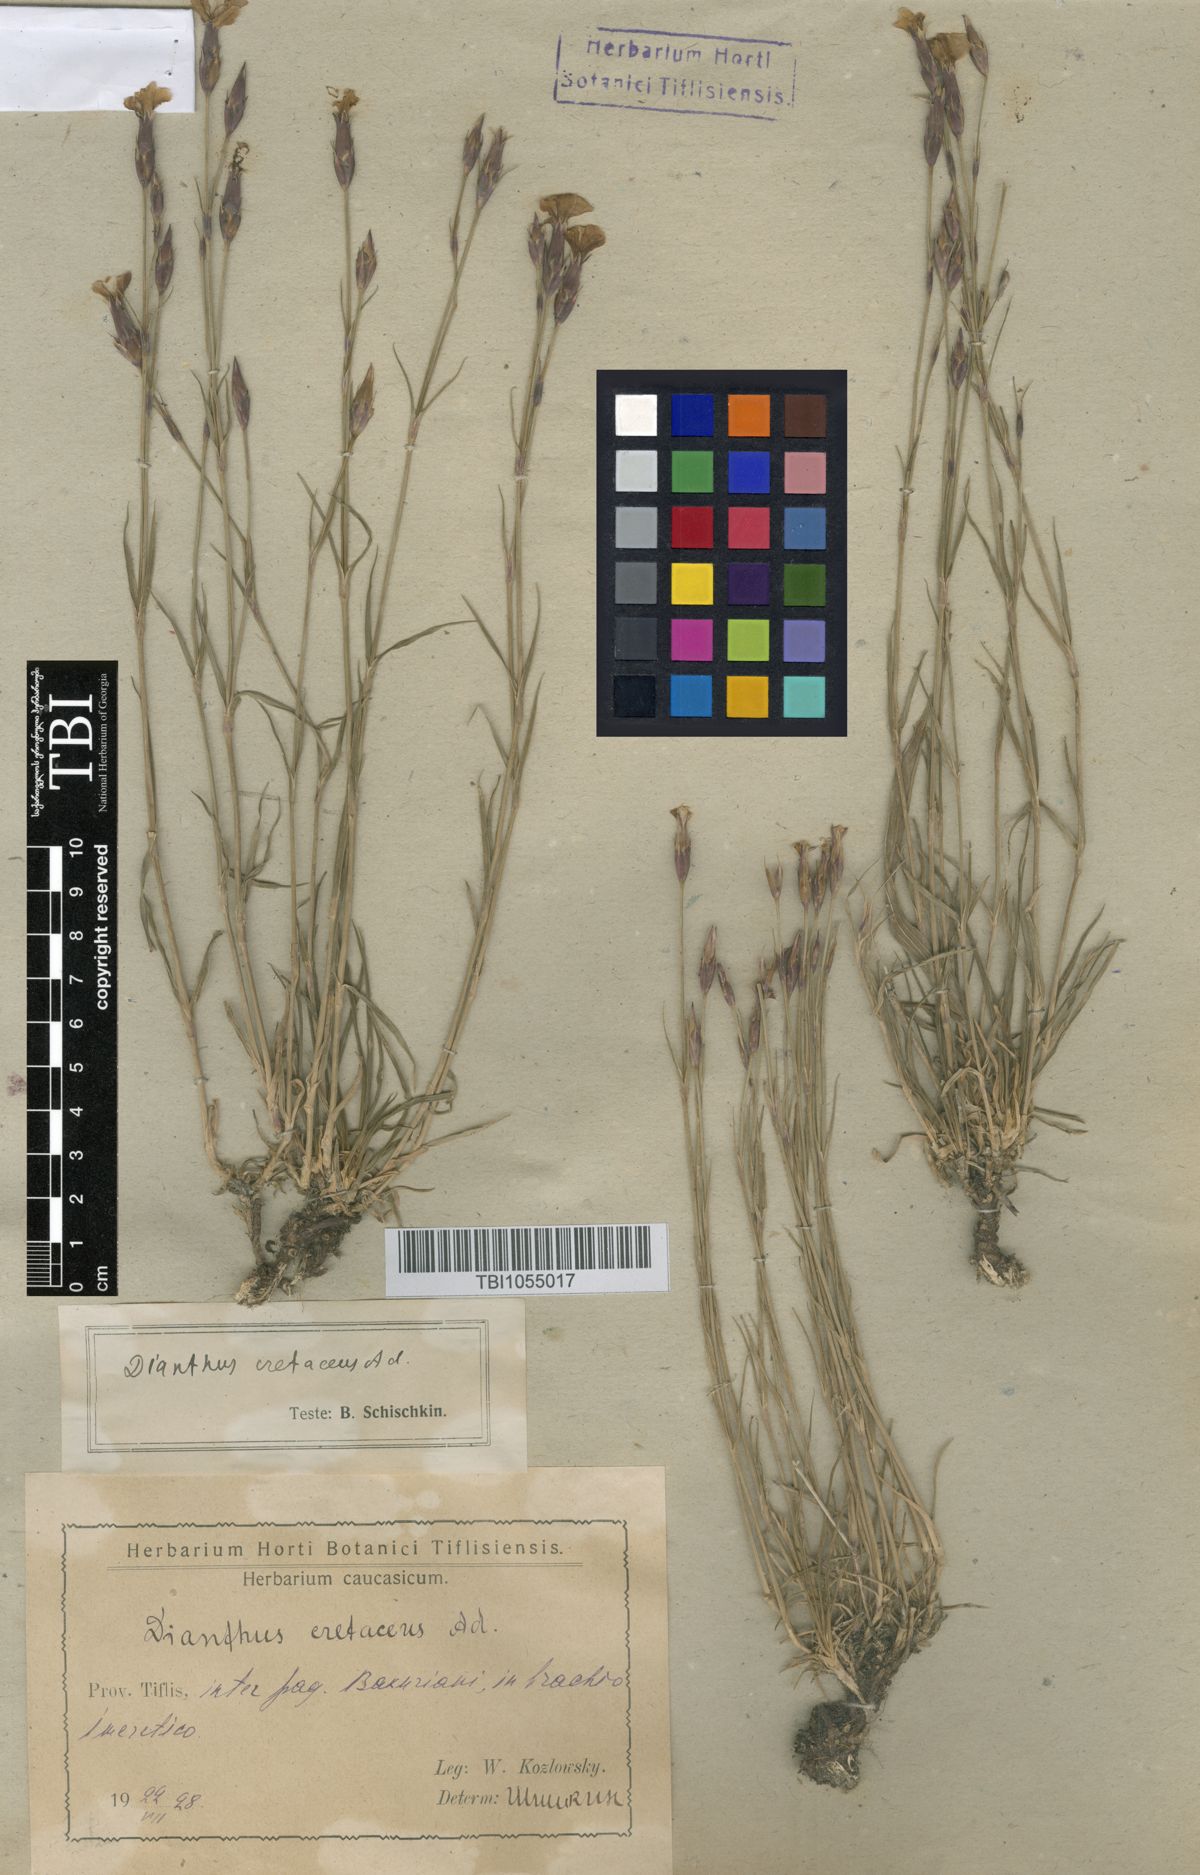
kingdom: Plantae
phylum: Tracheophyta
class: Magnoliopsida
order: Caryophyllales
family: Caryophyllaceae
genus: Dianthus
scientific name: Dianthus cretaceus
